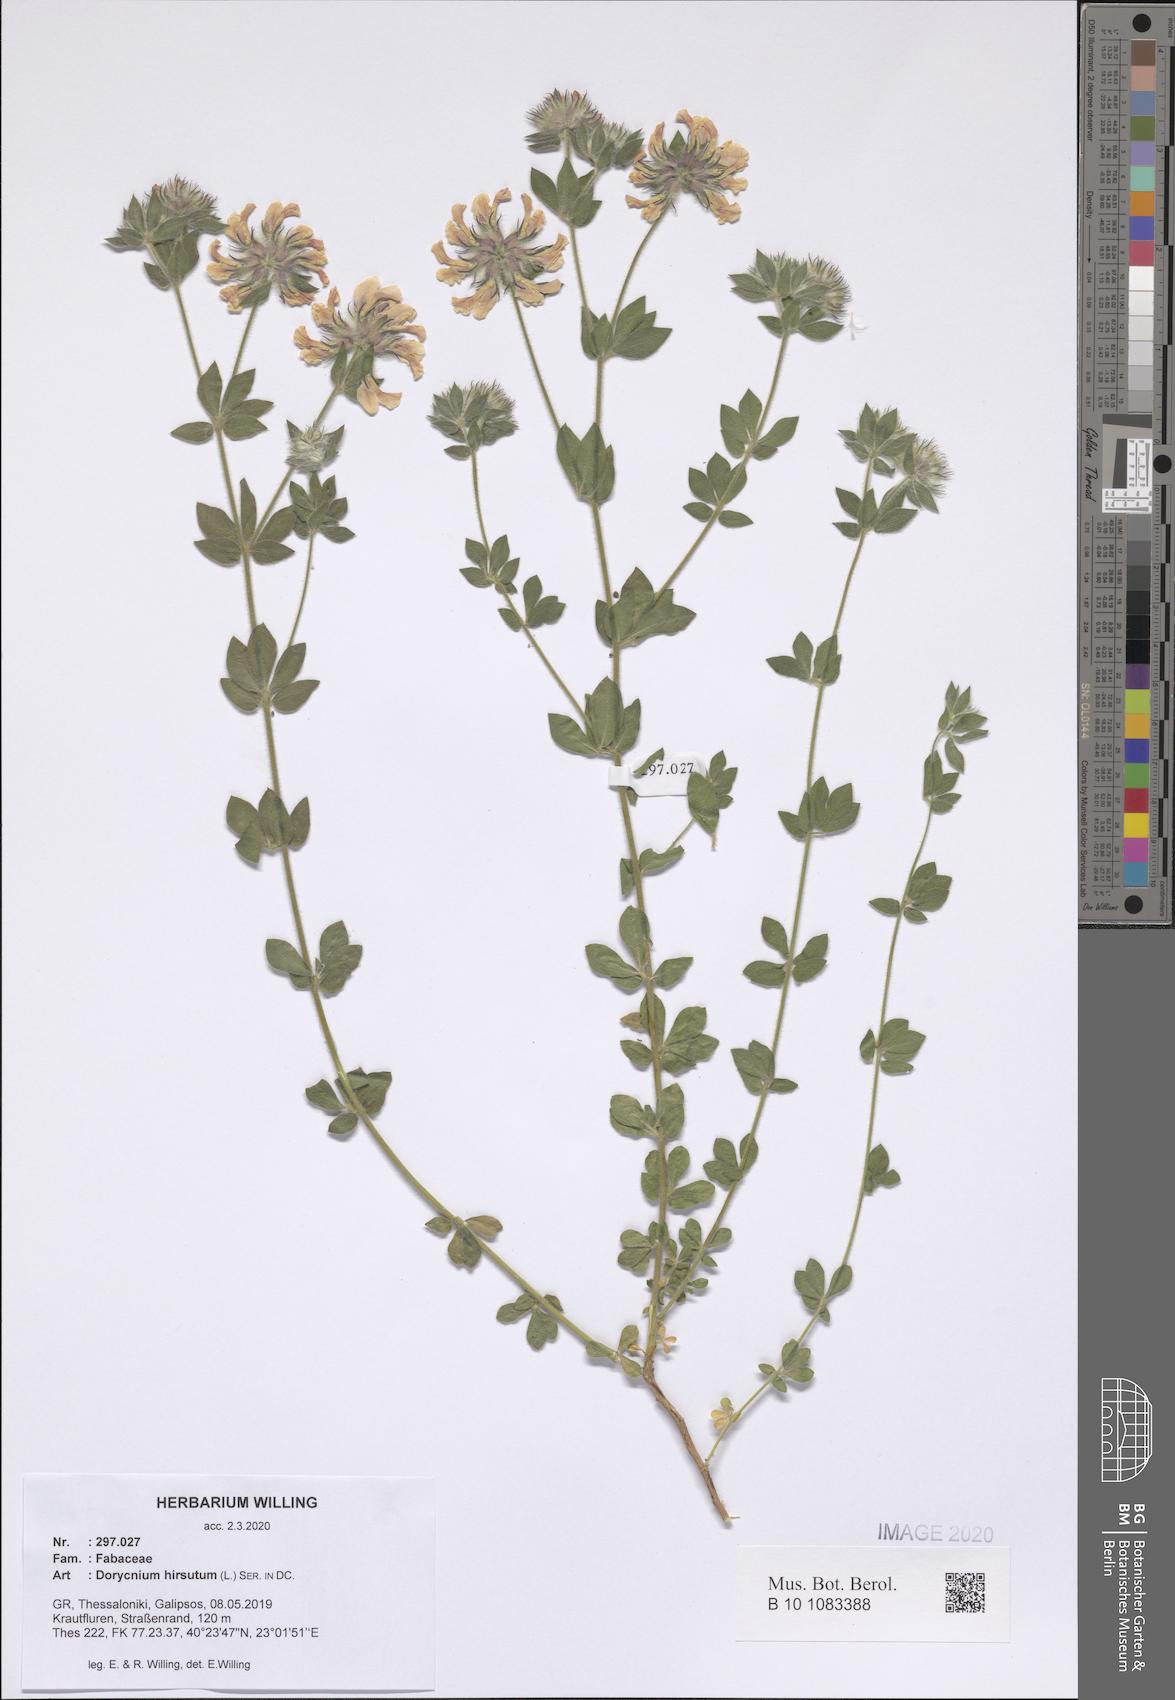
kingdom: Plantae
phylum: Tracheophyta
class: Magnoliopsida
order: Fabales
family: Fabaceae
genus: Lotus
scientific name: Lotus hirsutus
